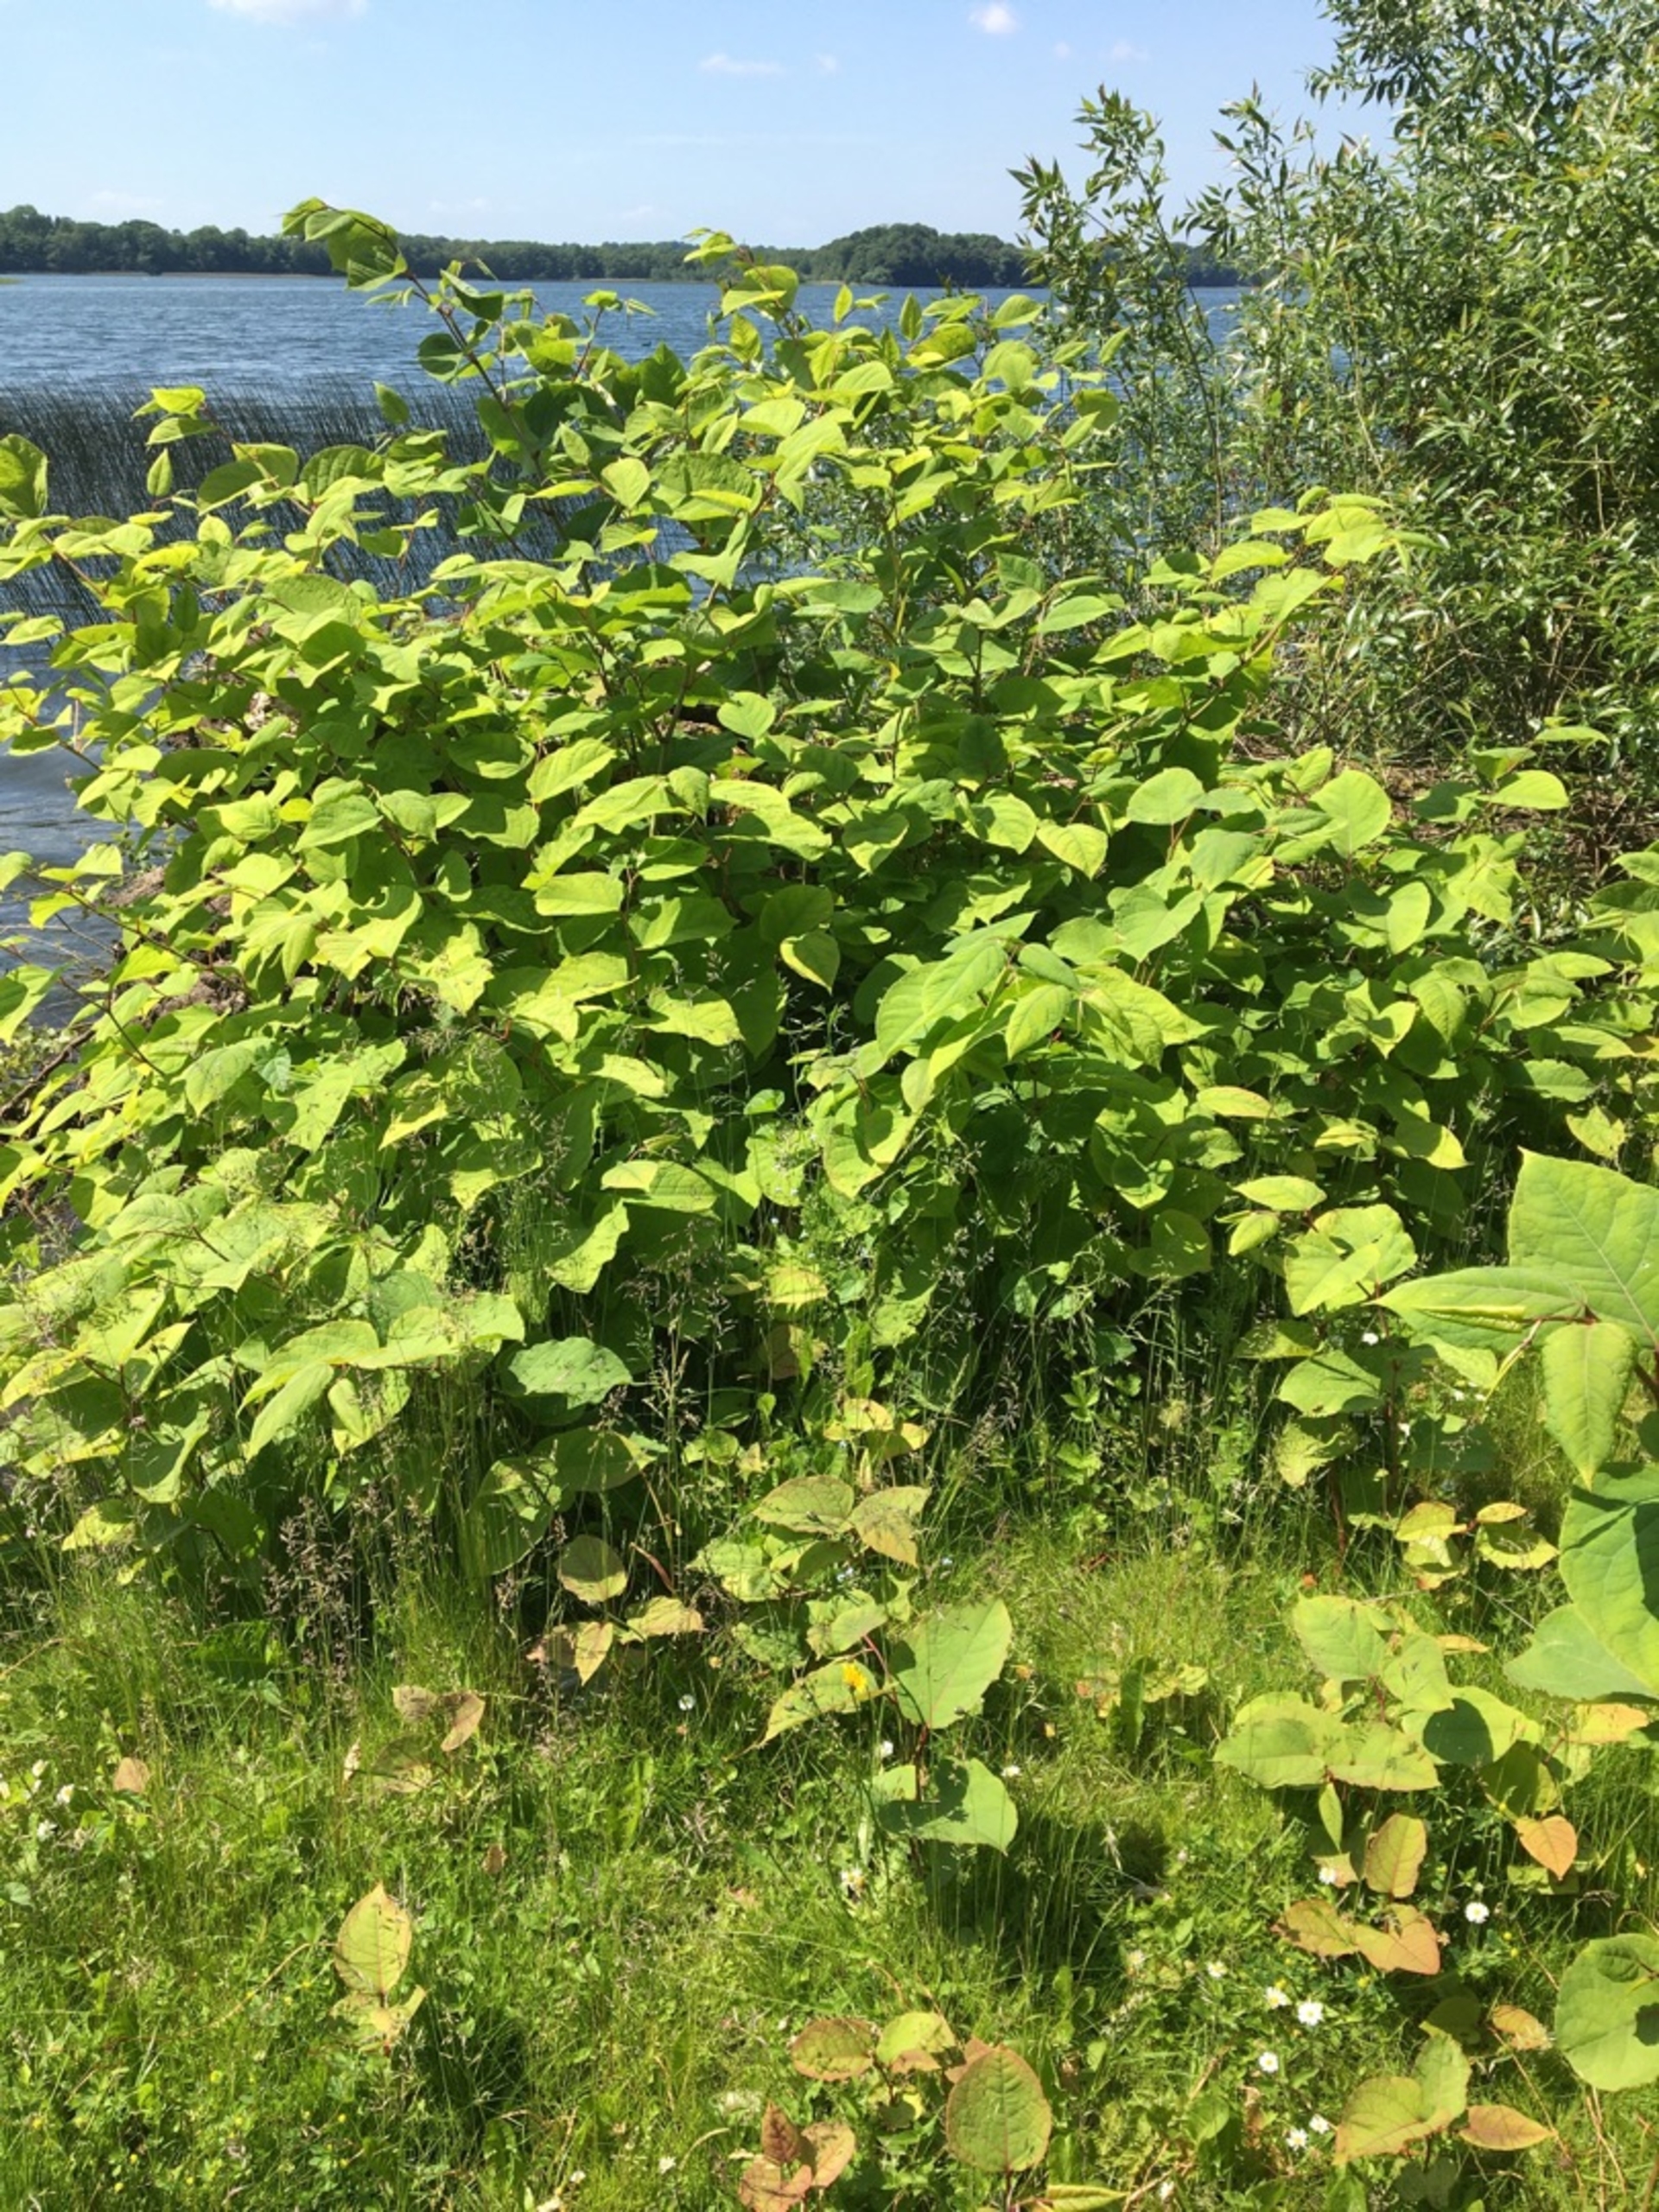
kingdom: Plantae
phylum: Tracheophyta
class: Magnoliopsida
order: Caryophyllales
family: Polygonaceae
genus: Reynoutria
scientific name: Reynoutria japonica
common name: Japan-pileurt
